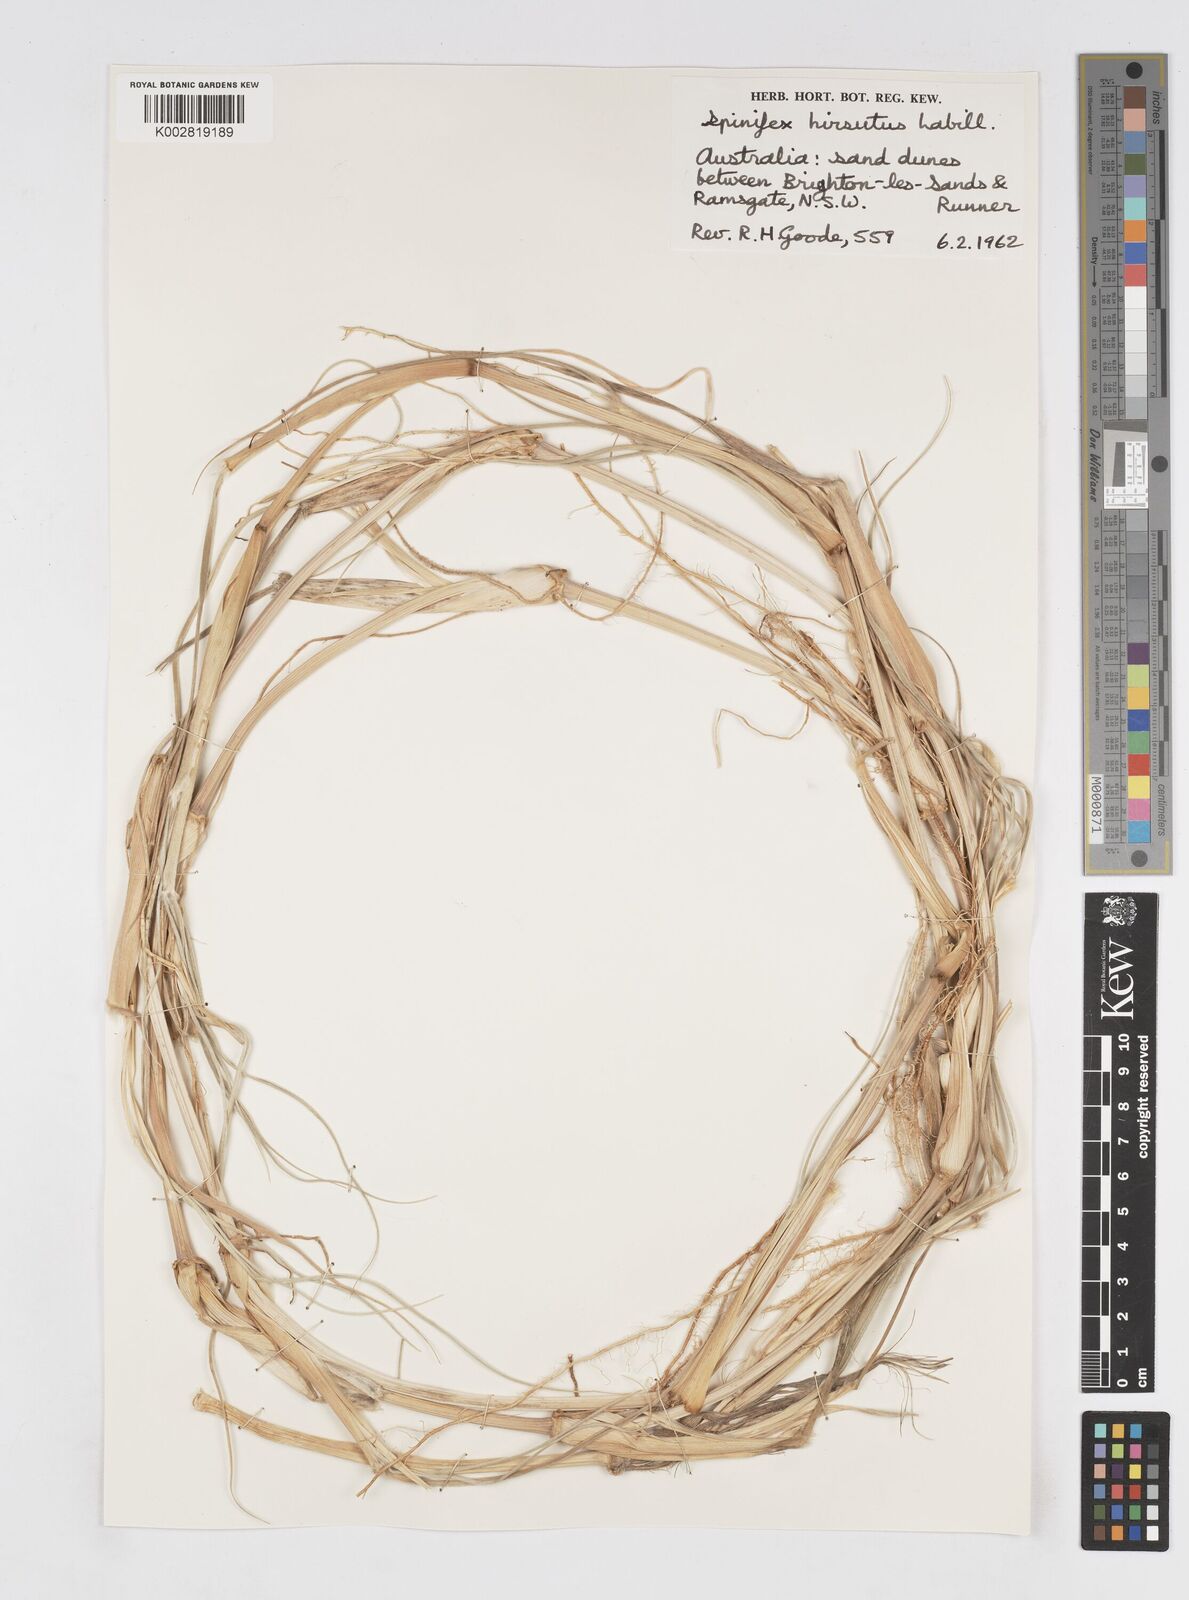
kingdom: Plantae
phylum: Tracheophyta
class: Liliopsida
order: Poales
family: Poaceae
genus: Spinifex
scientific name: Spinifex sericeus
